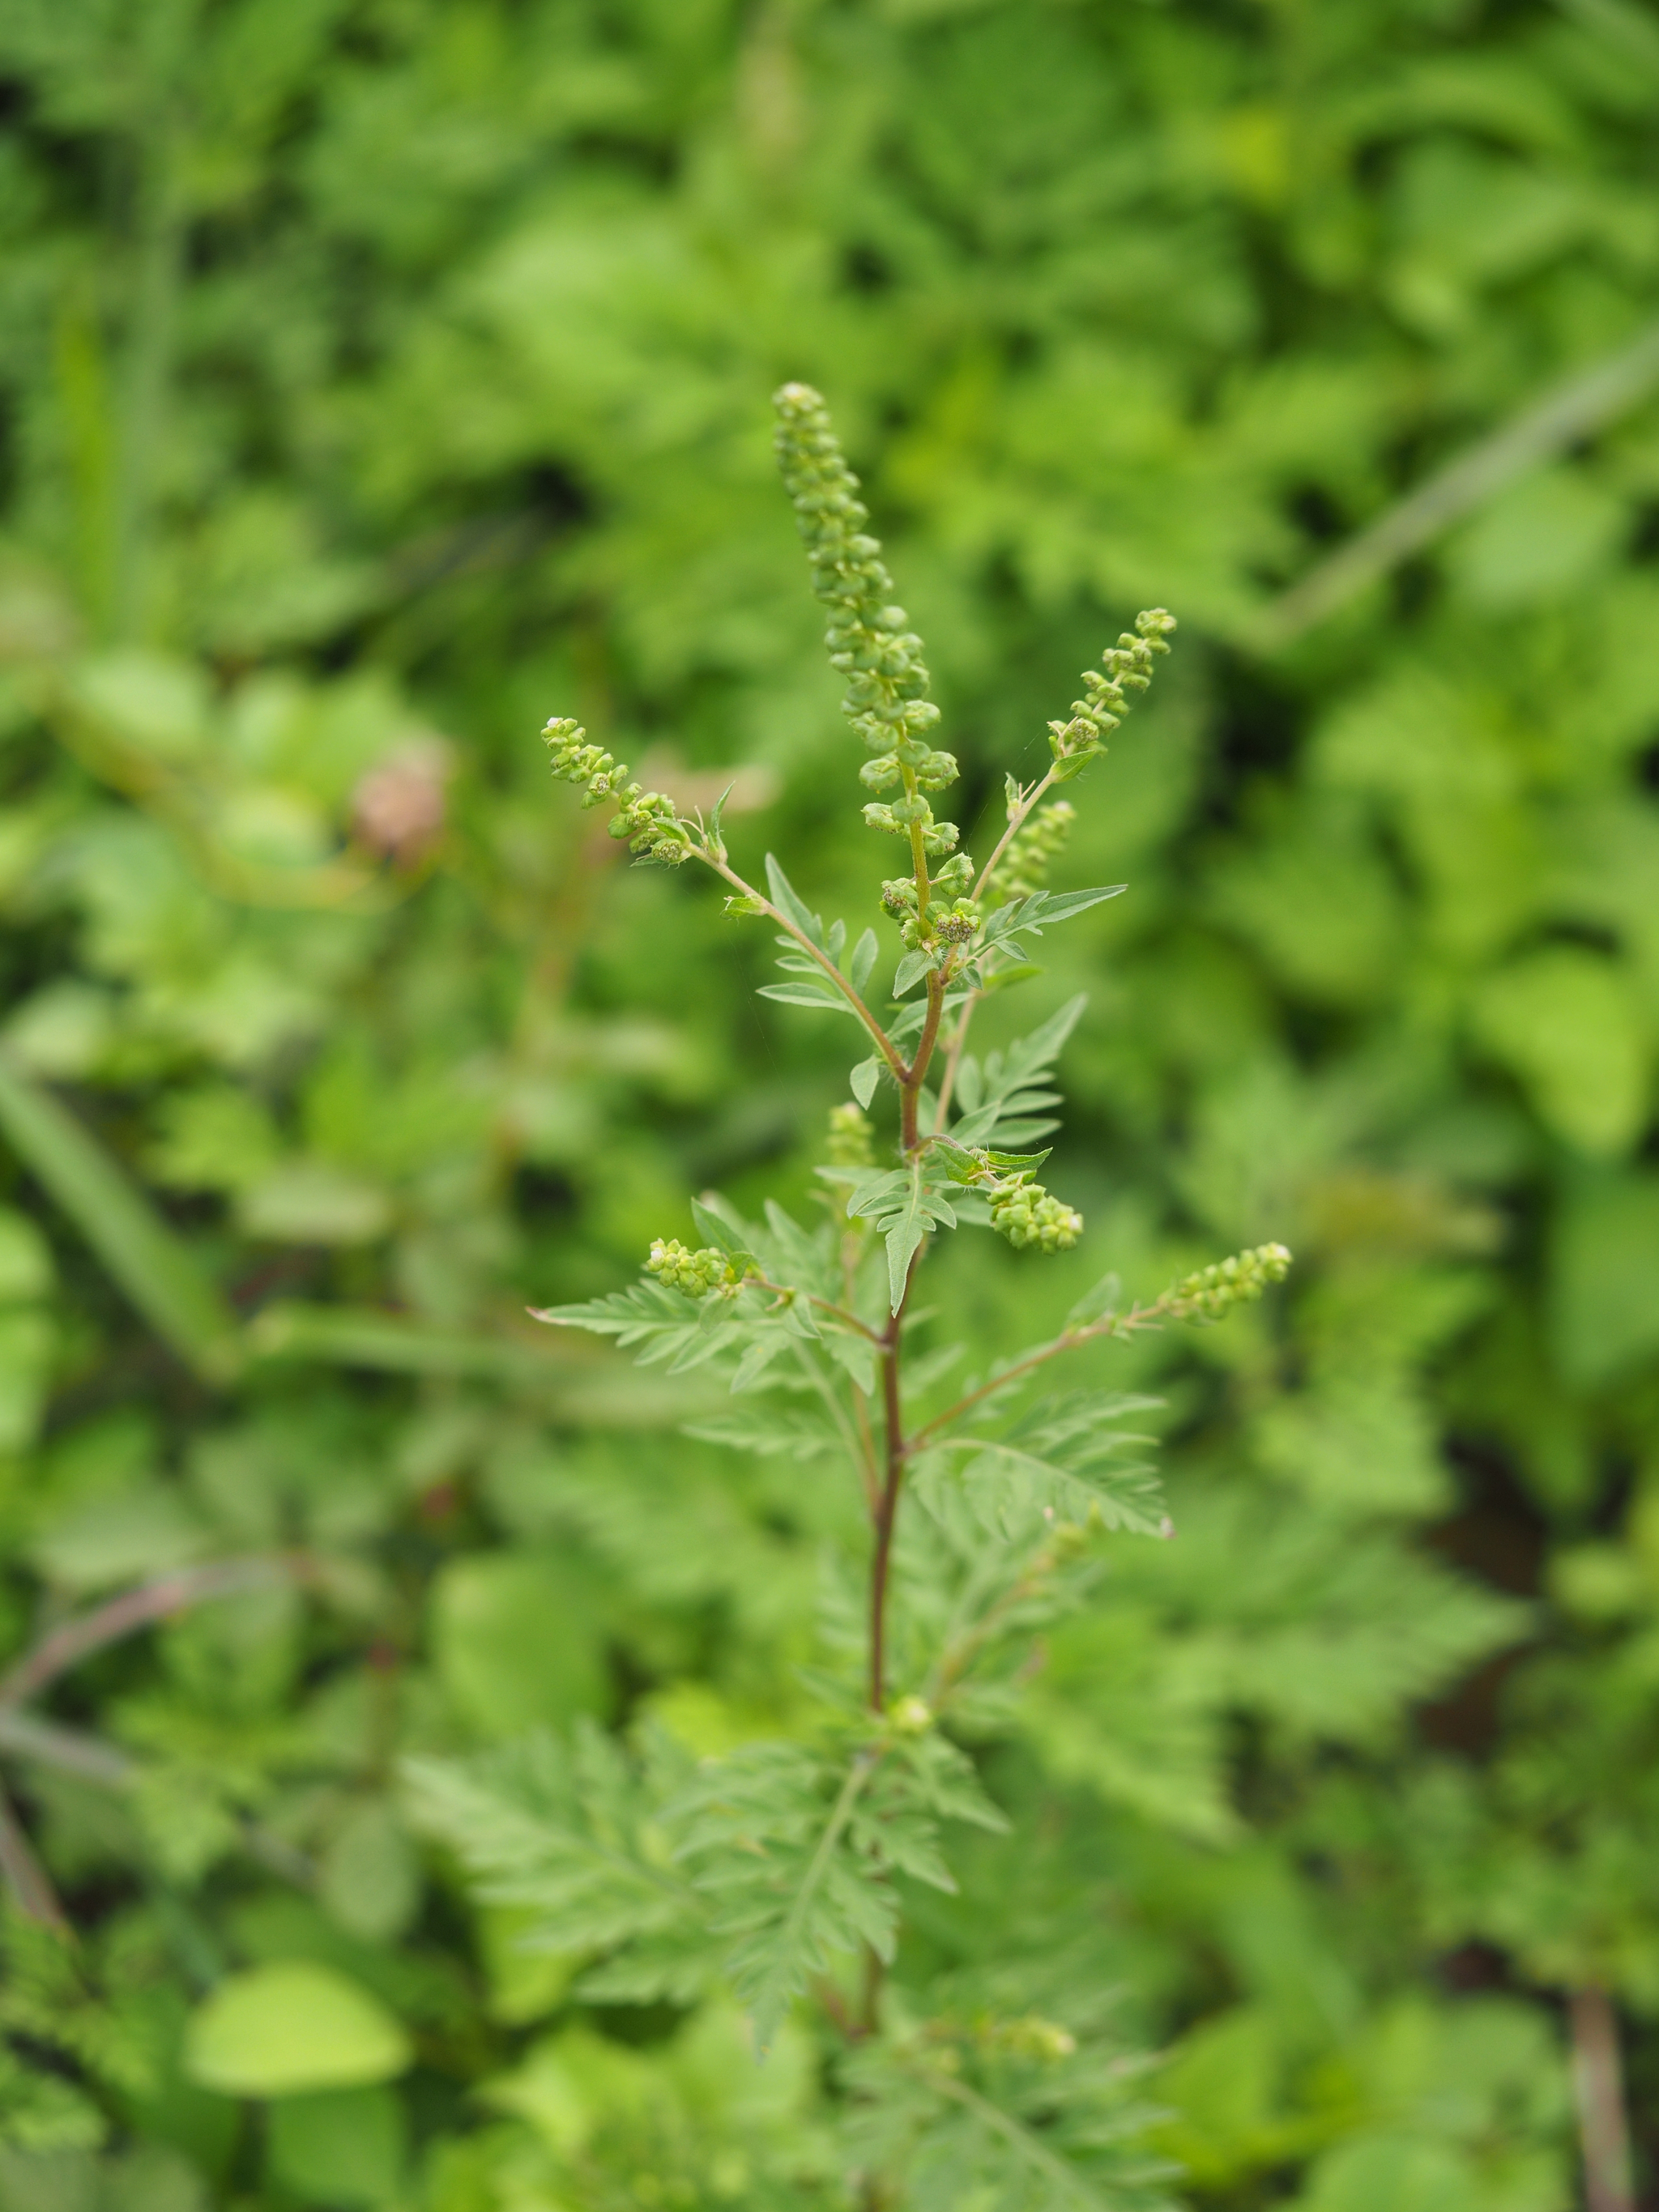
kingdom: Plantae
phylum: Tracheophyta
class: Magnoliopsida
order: Asterales
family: Asteraceae
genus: Ambrosia
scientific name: Ambrosia artemisiifolia
